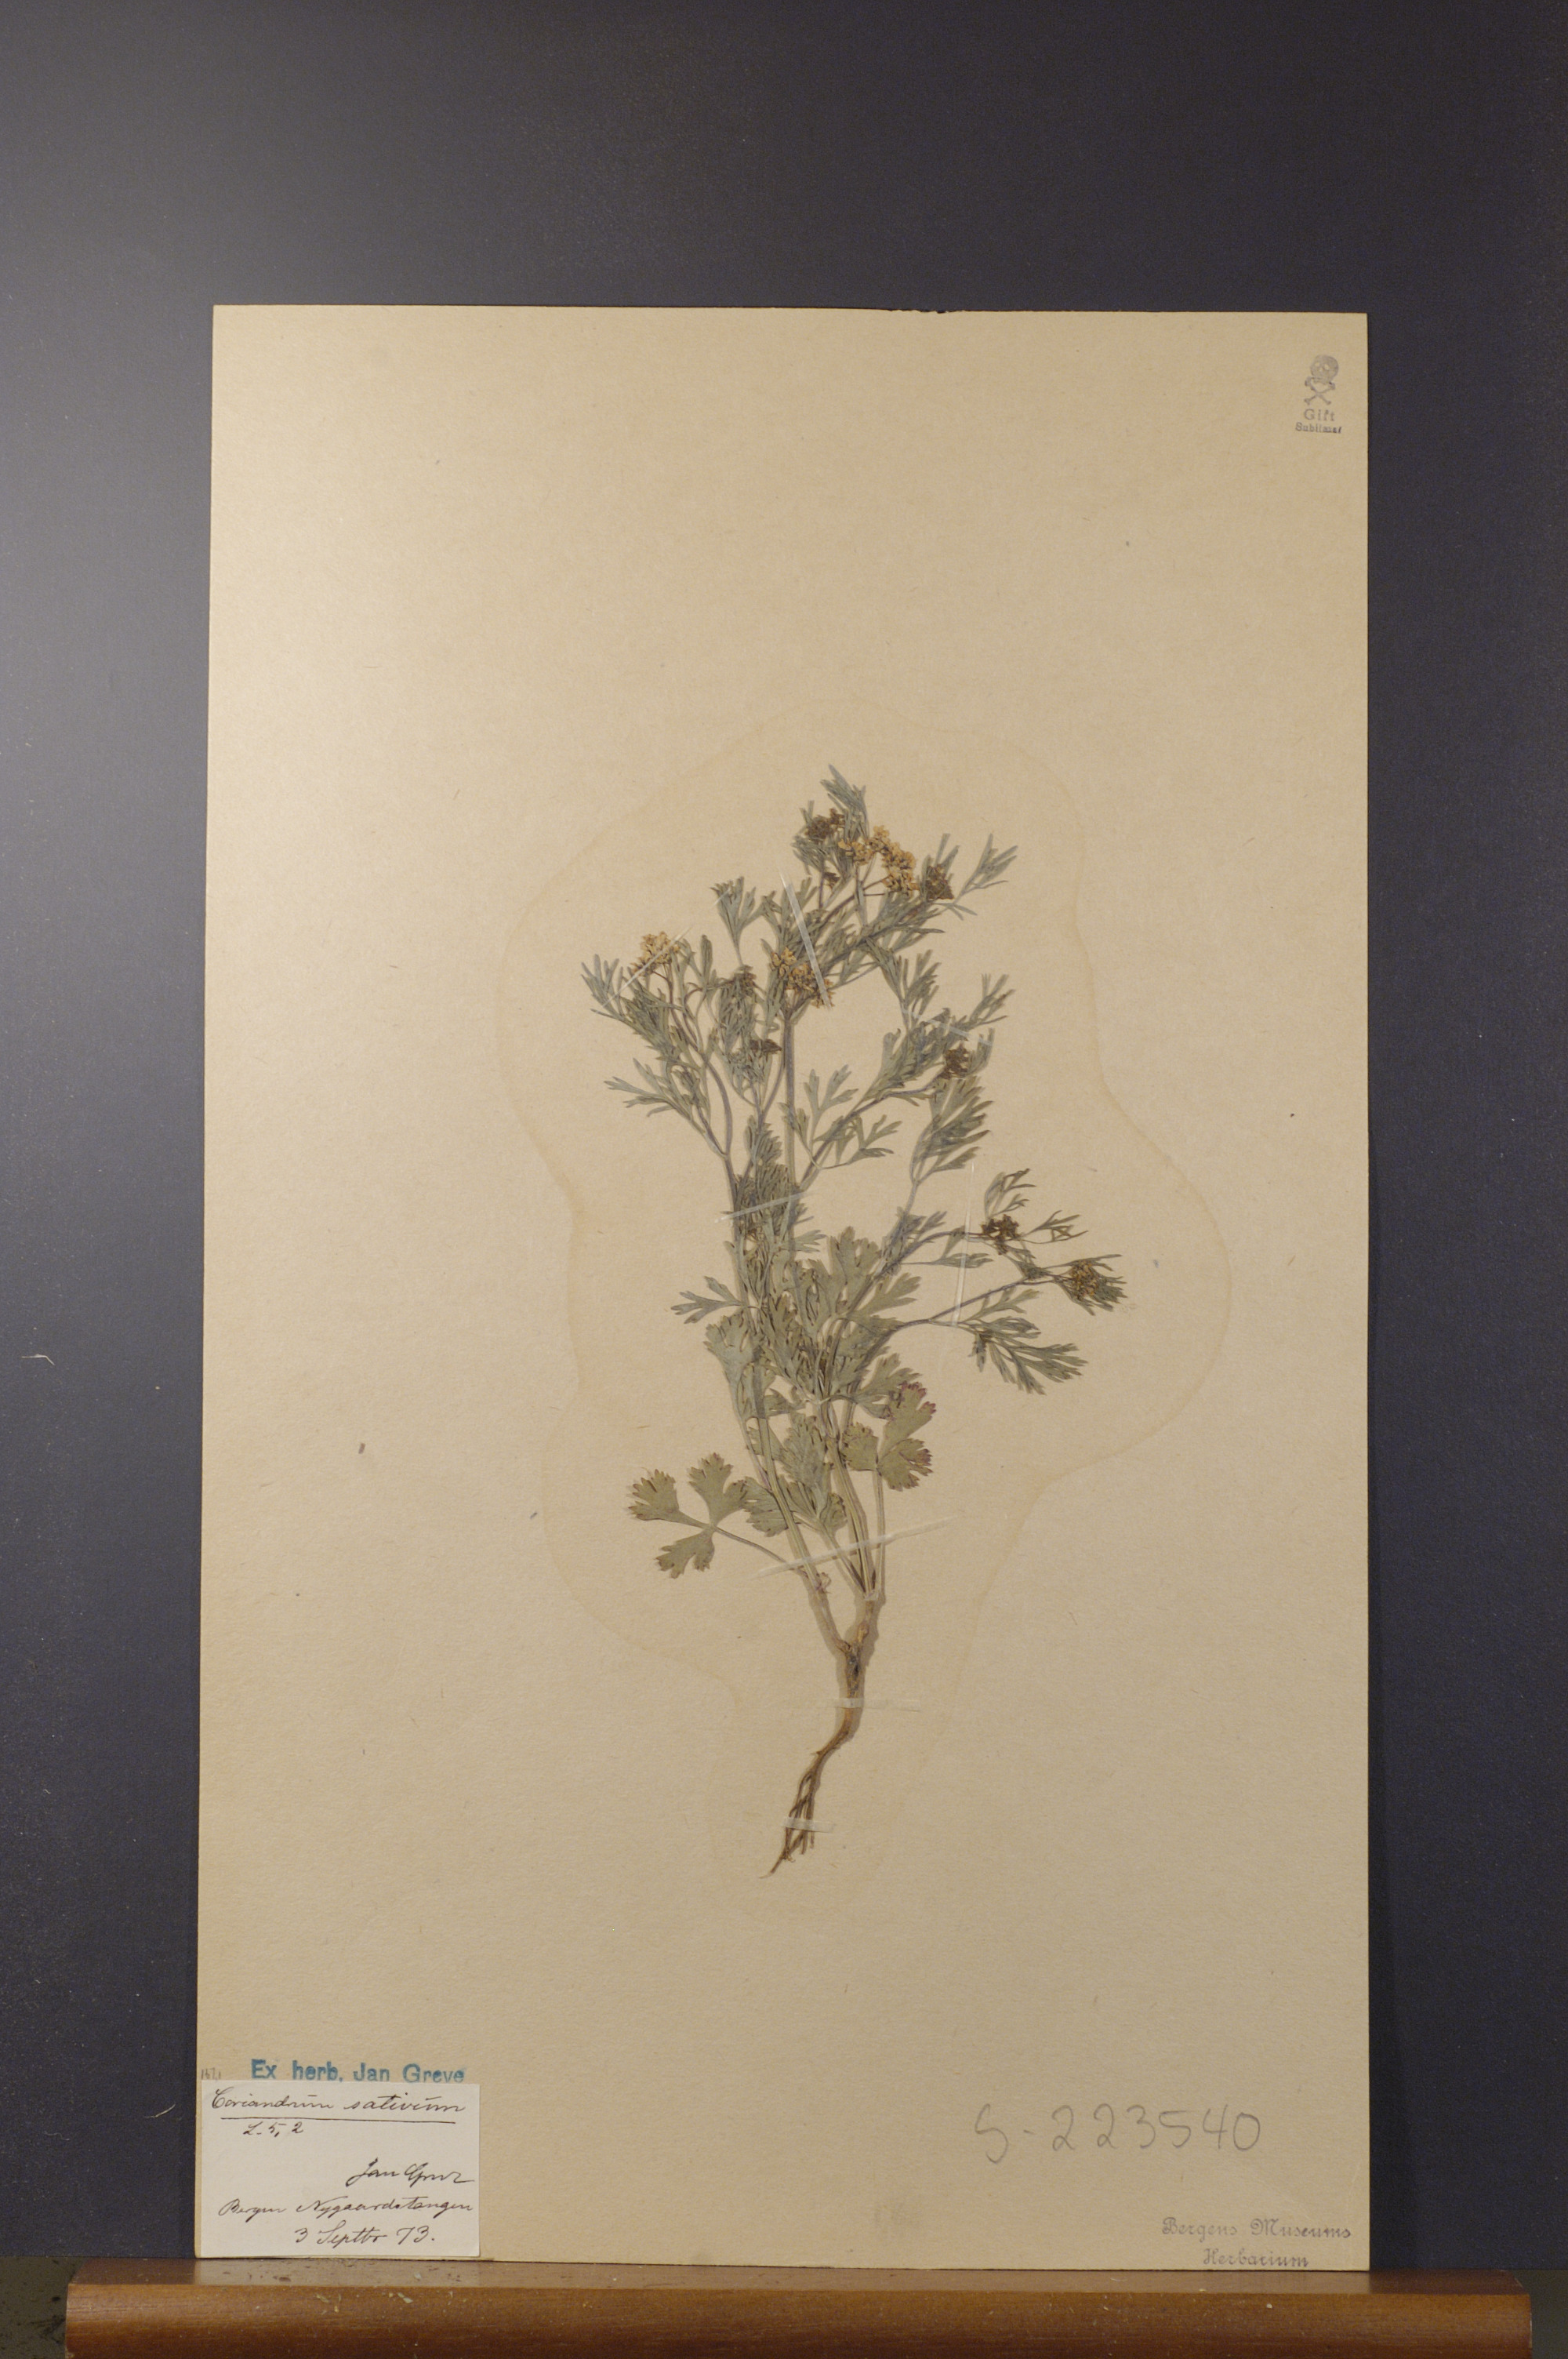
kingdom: Plantae
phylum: Tracheophyta
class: Magnoliopsida
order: Apiales
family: Apiaceae
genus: Coriandrum
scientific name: Coriandrum sativum
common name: Coriander
